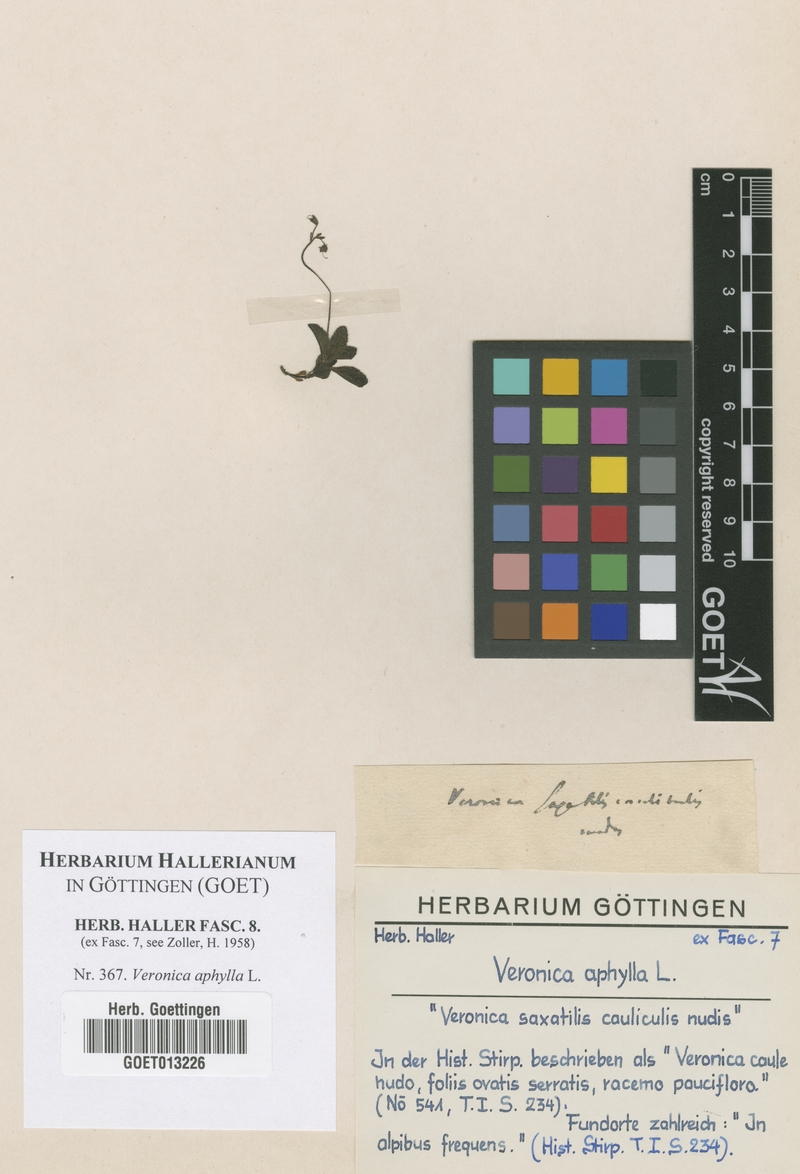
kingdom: Plantae
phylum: Tracheophyta
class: Magnoliopsida
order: Lamiales
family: Plantaginaceae
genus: Veronica
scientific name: Veronica aphylla
